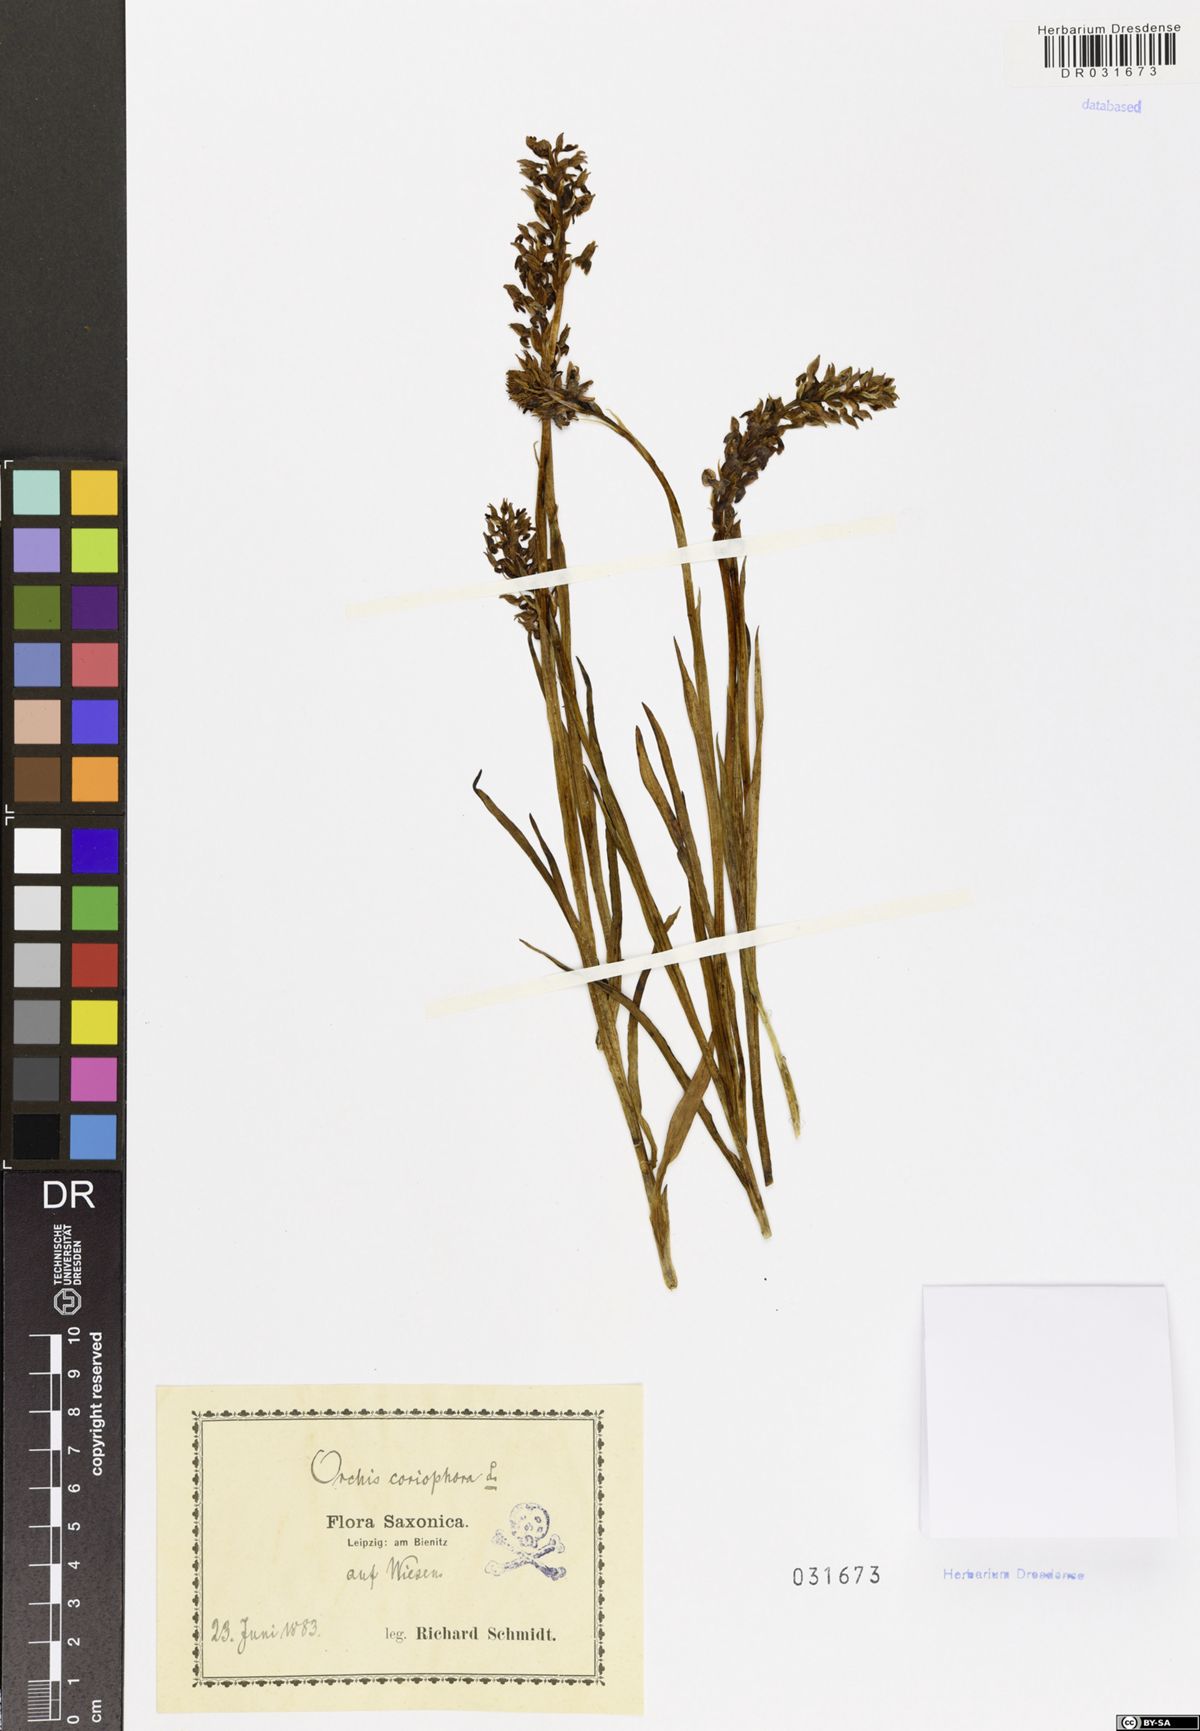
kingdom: Plantae
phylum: Tracheophyta
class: Liliopsida
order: Asparagales
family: Orchidaceae
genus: Anacamptis
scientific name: Anacamptis coriophora
